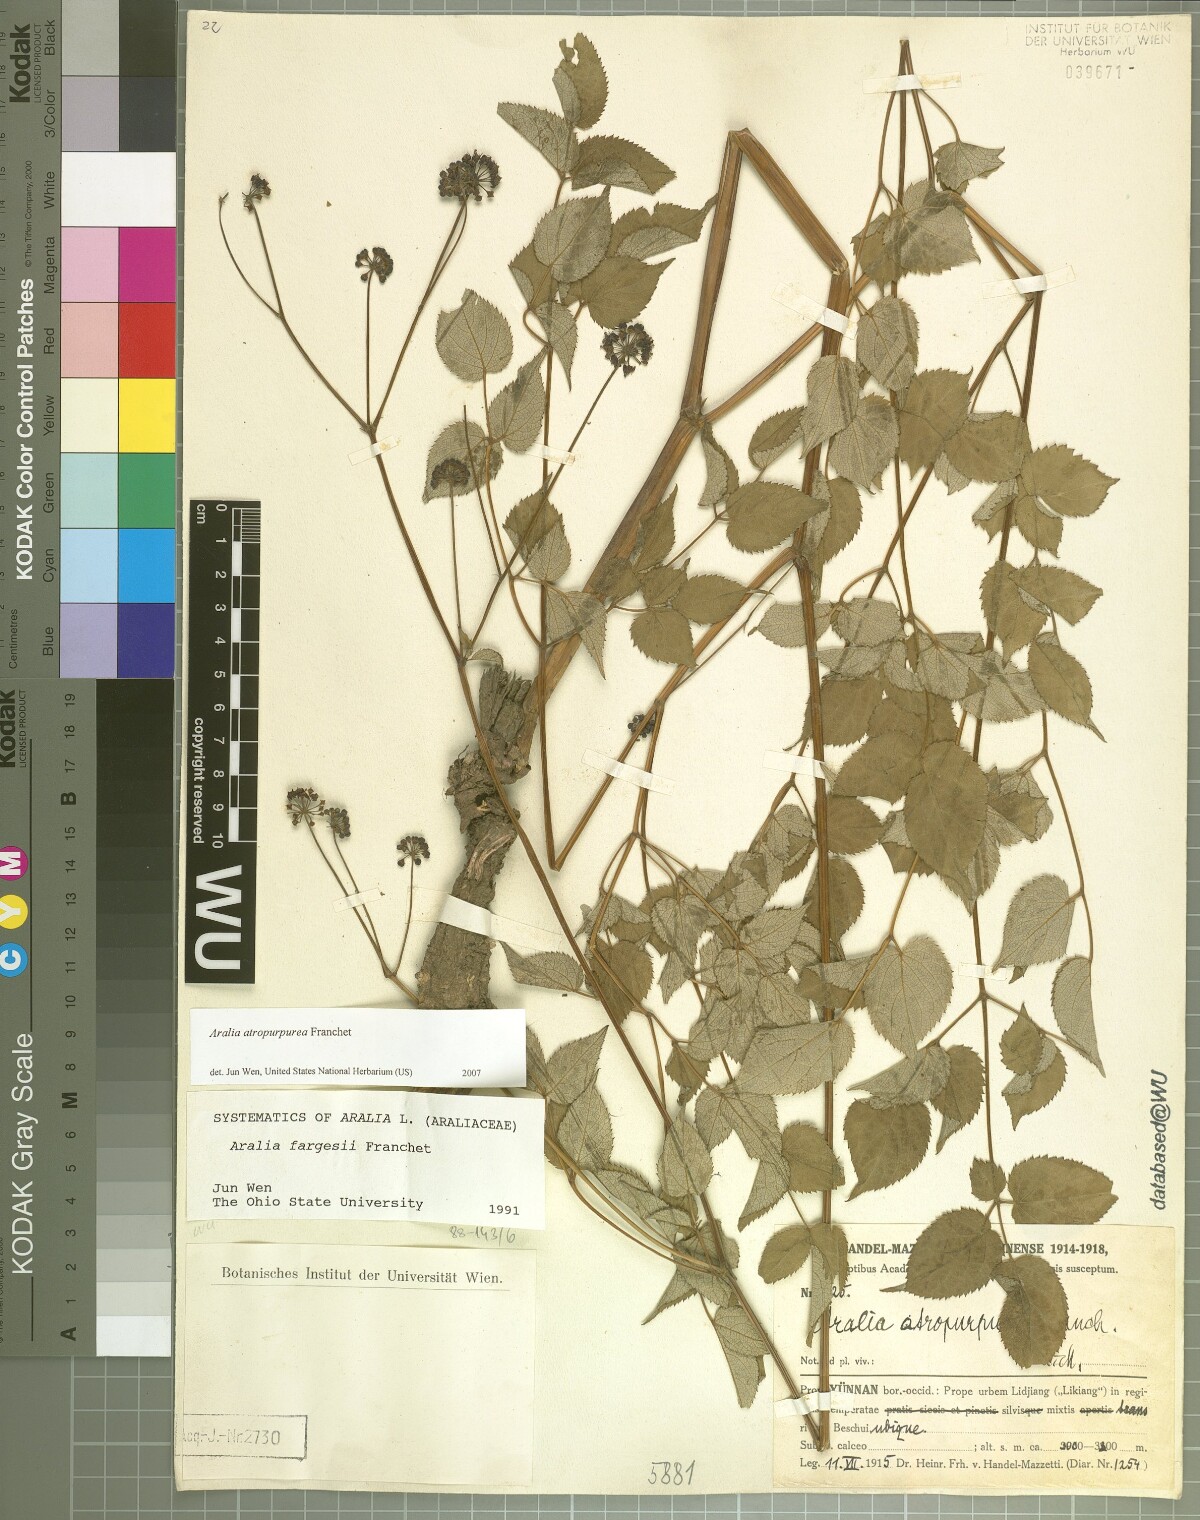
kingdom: Plantae
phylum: Tracheophyta
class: Magnoliopsida
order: Apiales
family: Araliaceae
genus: Aralia
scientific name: Aralia atropurpurea
